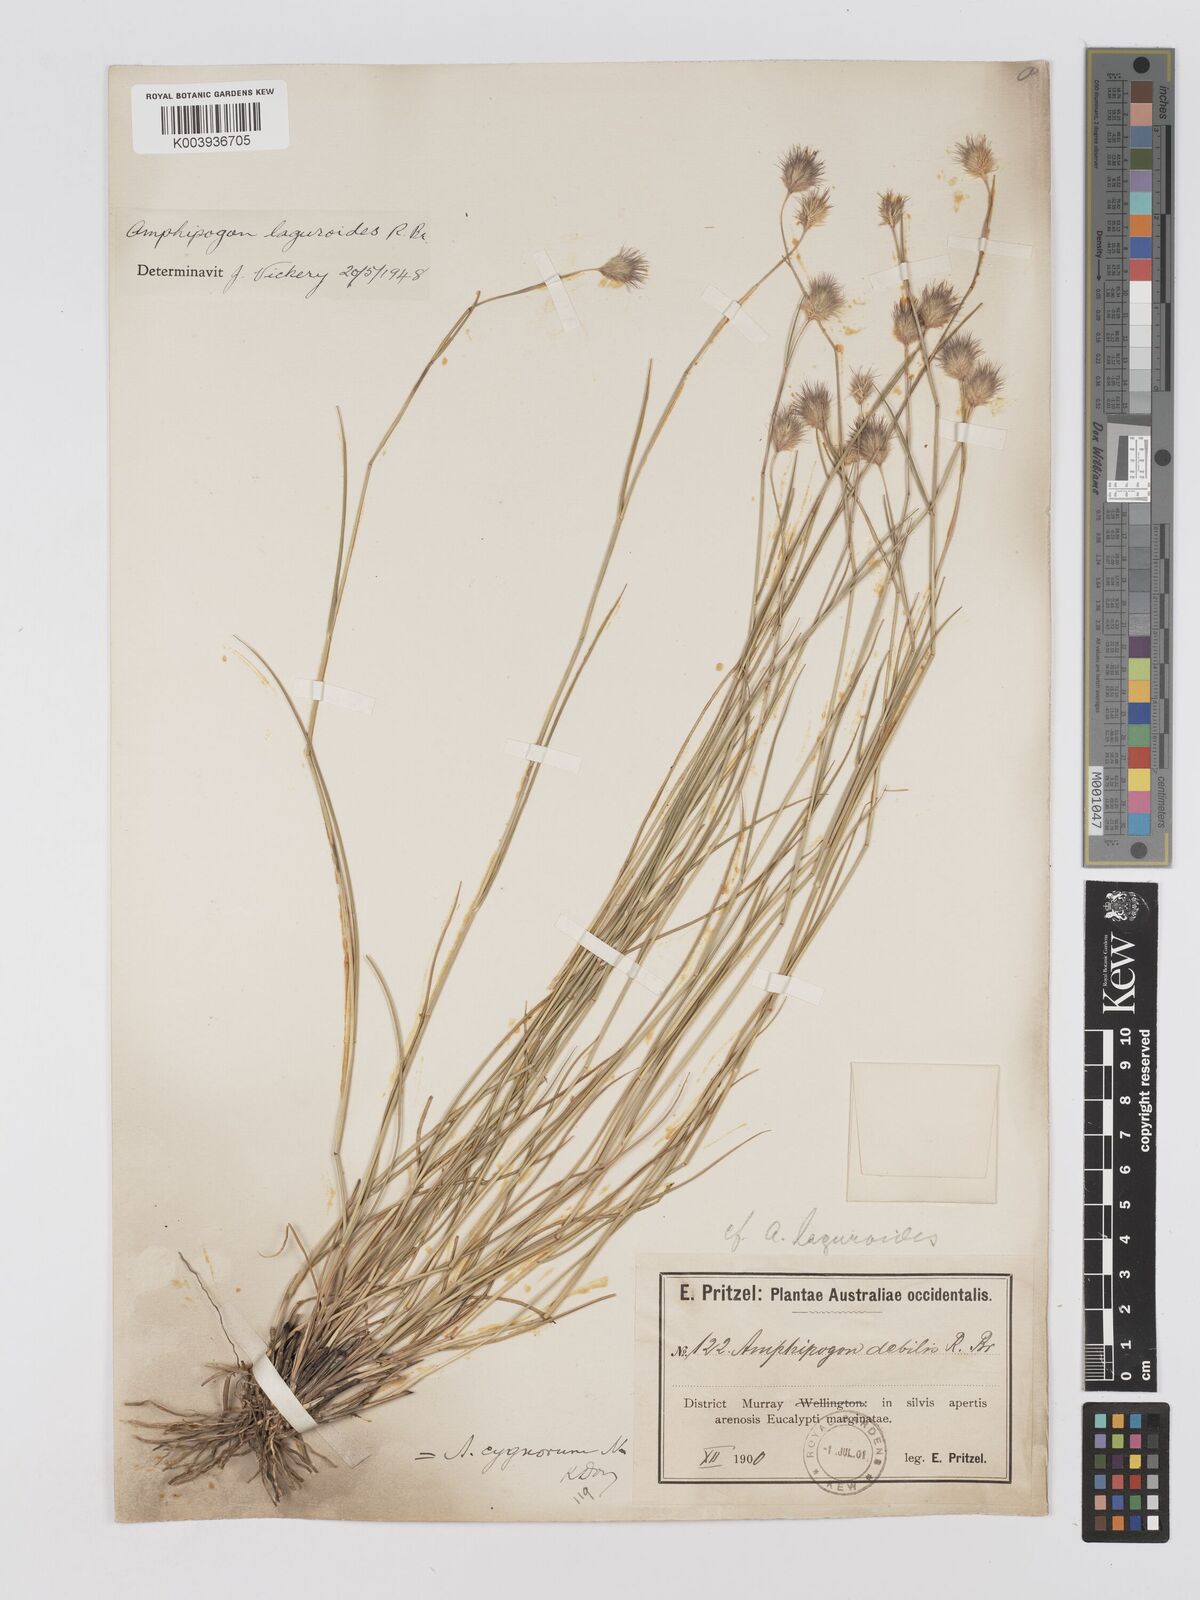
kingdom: Plantae
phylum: Tracheophyta
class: Liliopsida
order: Poales
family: Poaceae
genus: Amphipogon
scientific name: Amphipogon laguroides
